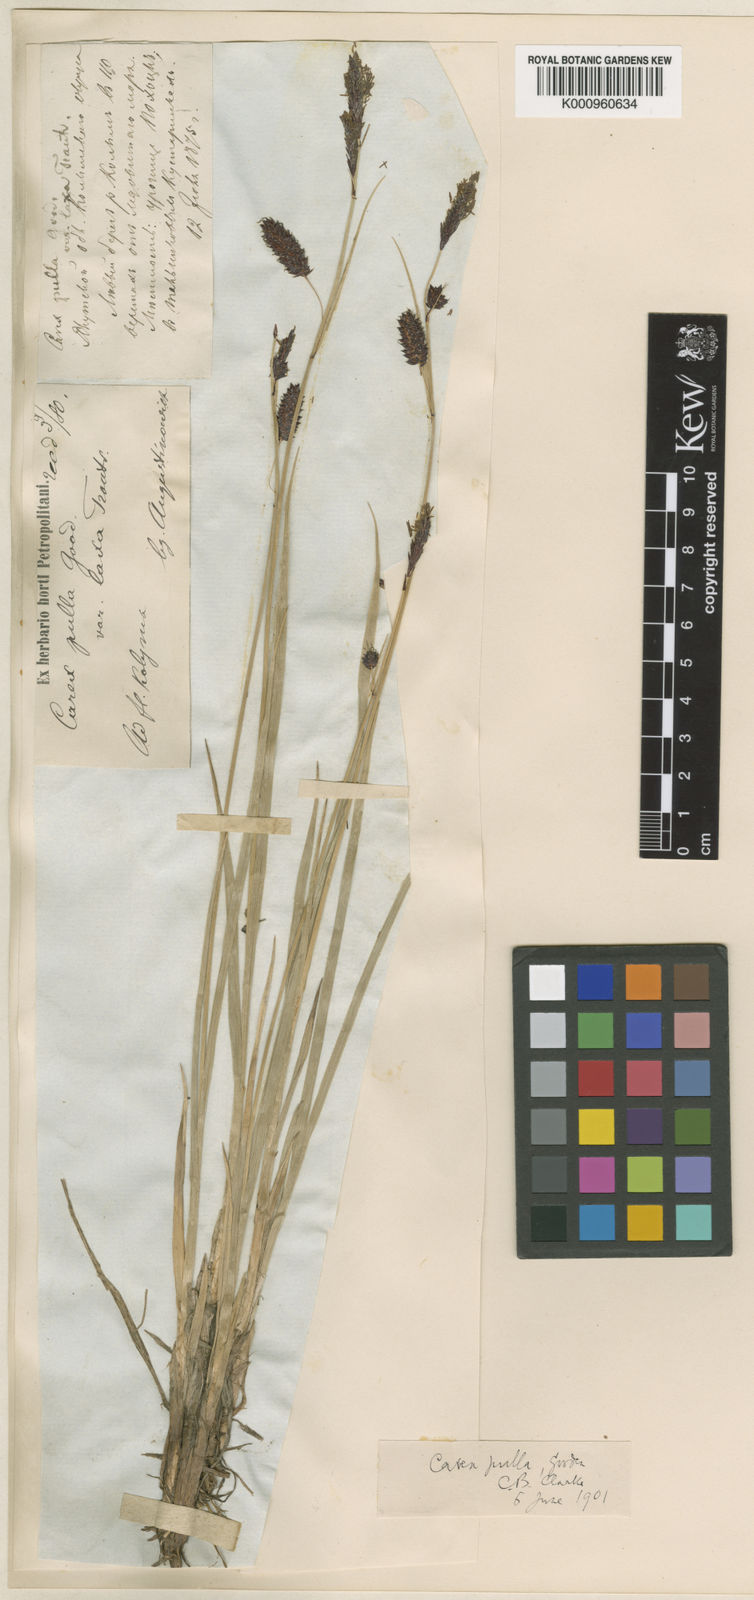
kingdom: Plantae
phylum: Tracheophyta
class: Liliopsida
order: Poales
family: Cyperaceae
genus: Carex
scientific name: Carex vesicaria
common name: Bladder-sedge
